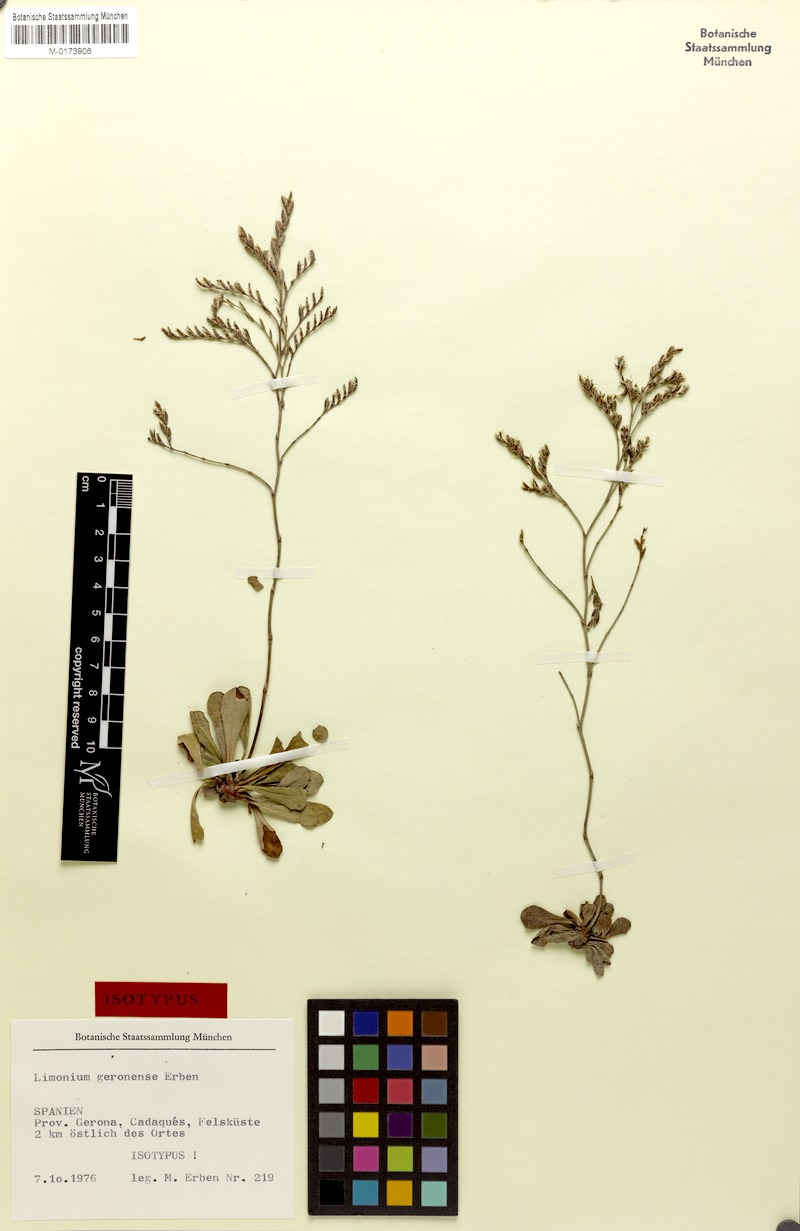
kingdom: Plantae
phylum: Tracheophyta
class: Magnoliopsida
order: Caryophyllales
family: Plumbaginaceae
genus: Limonium
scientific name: Limonium geronense
